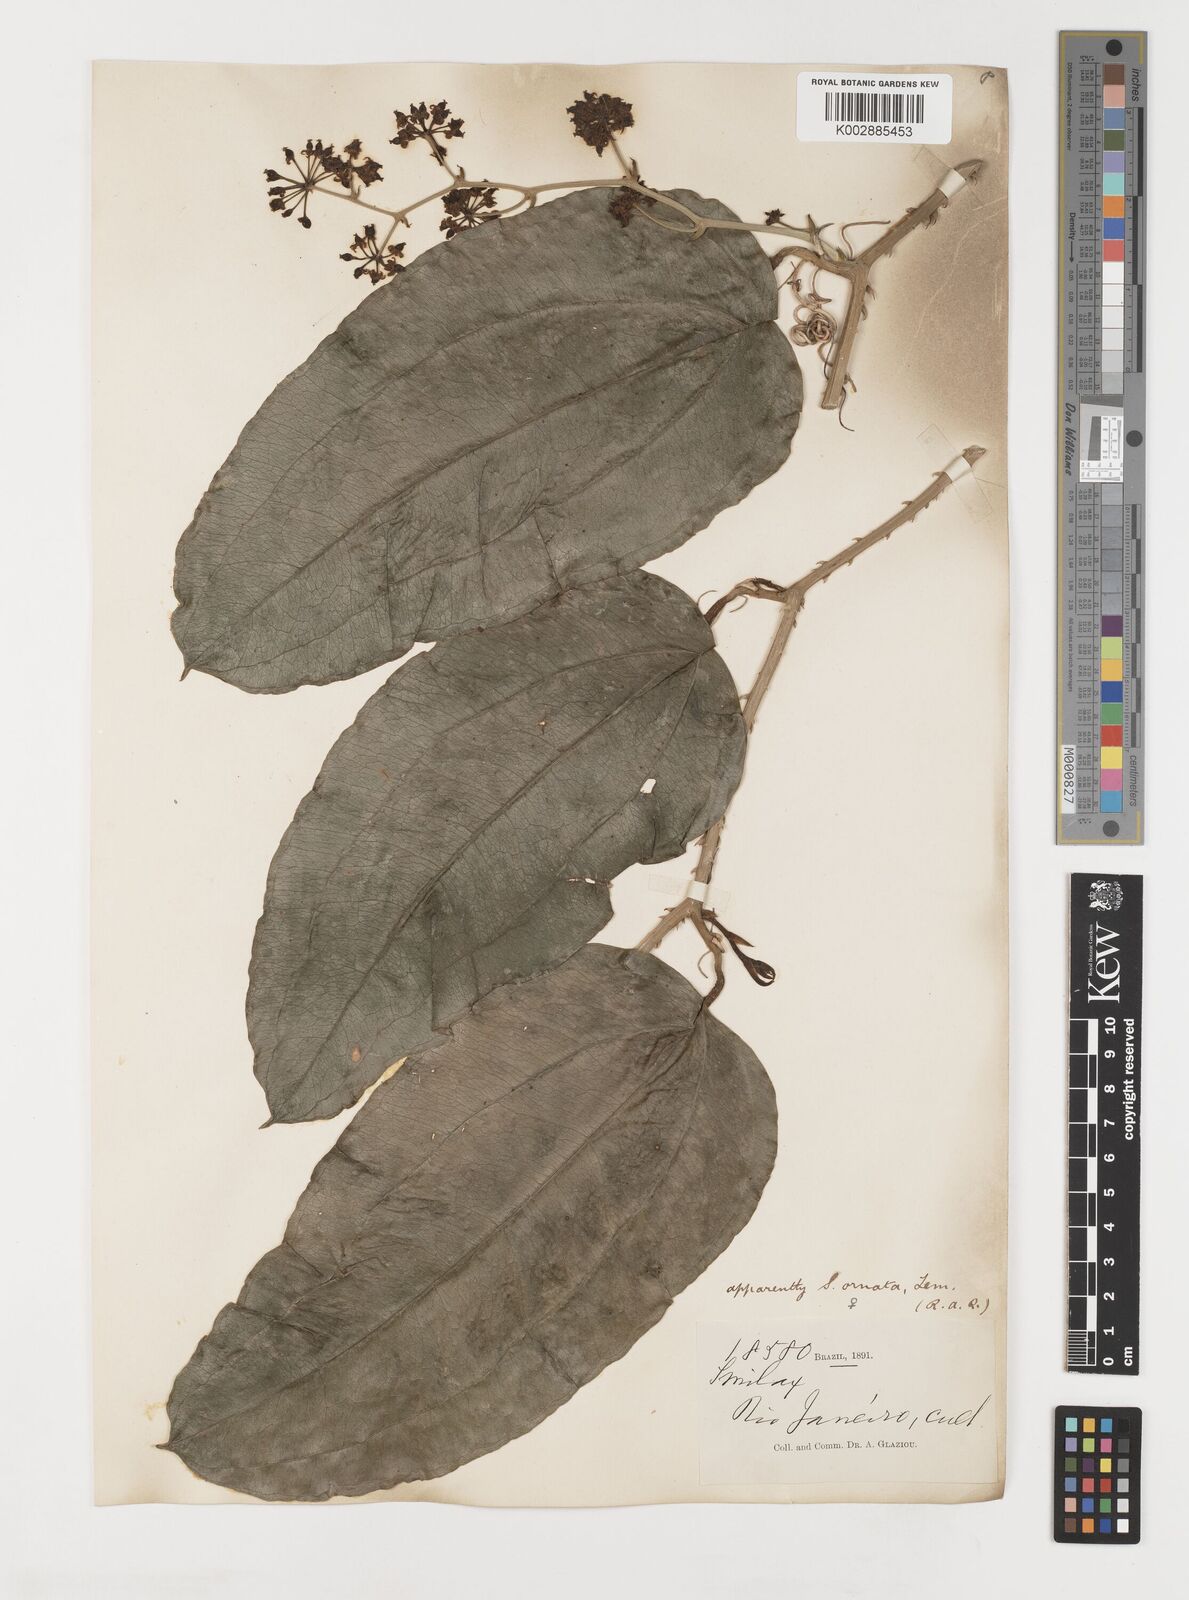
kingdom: Plantae
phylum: Tracheophyta
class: Liliopsida
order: Liliales
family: Smilacaceae
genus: Smilax
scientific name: Smilax ornata
